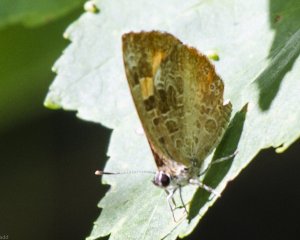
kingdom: Animalia
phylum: Arthropoda
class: Insecta
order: Lepidoptera
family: Lycaenidae
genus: Feniseca
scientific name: Feniseca tarquinius
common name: Harvester
